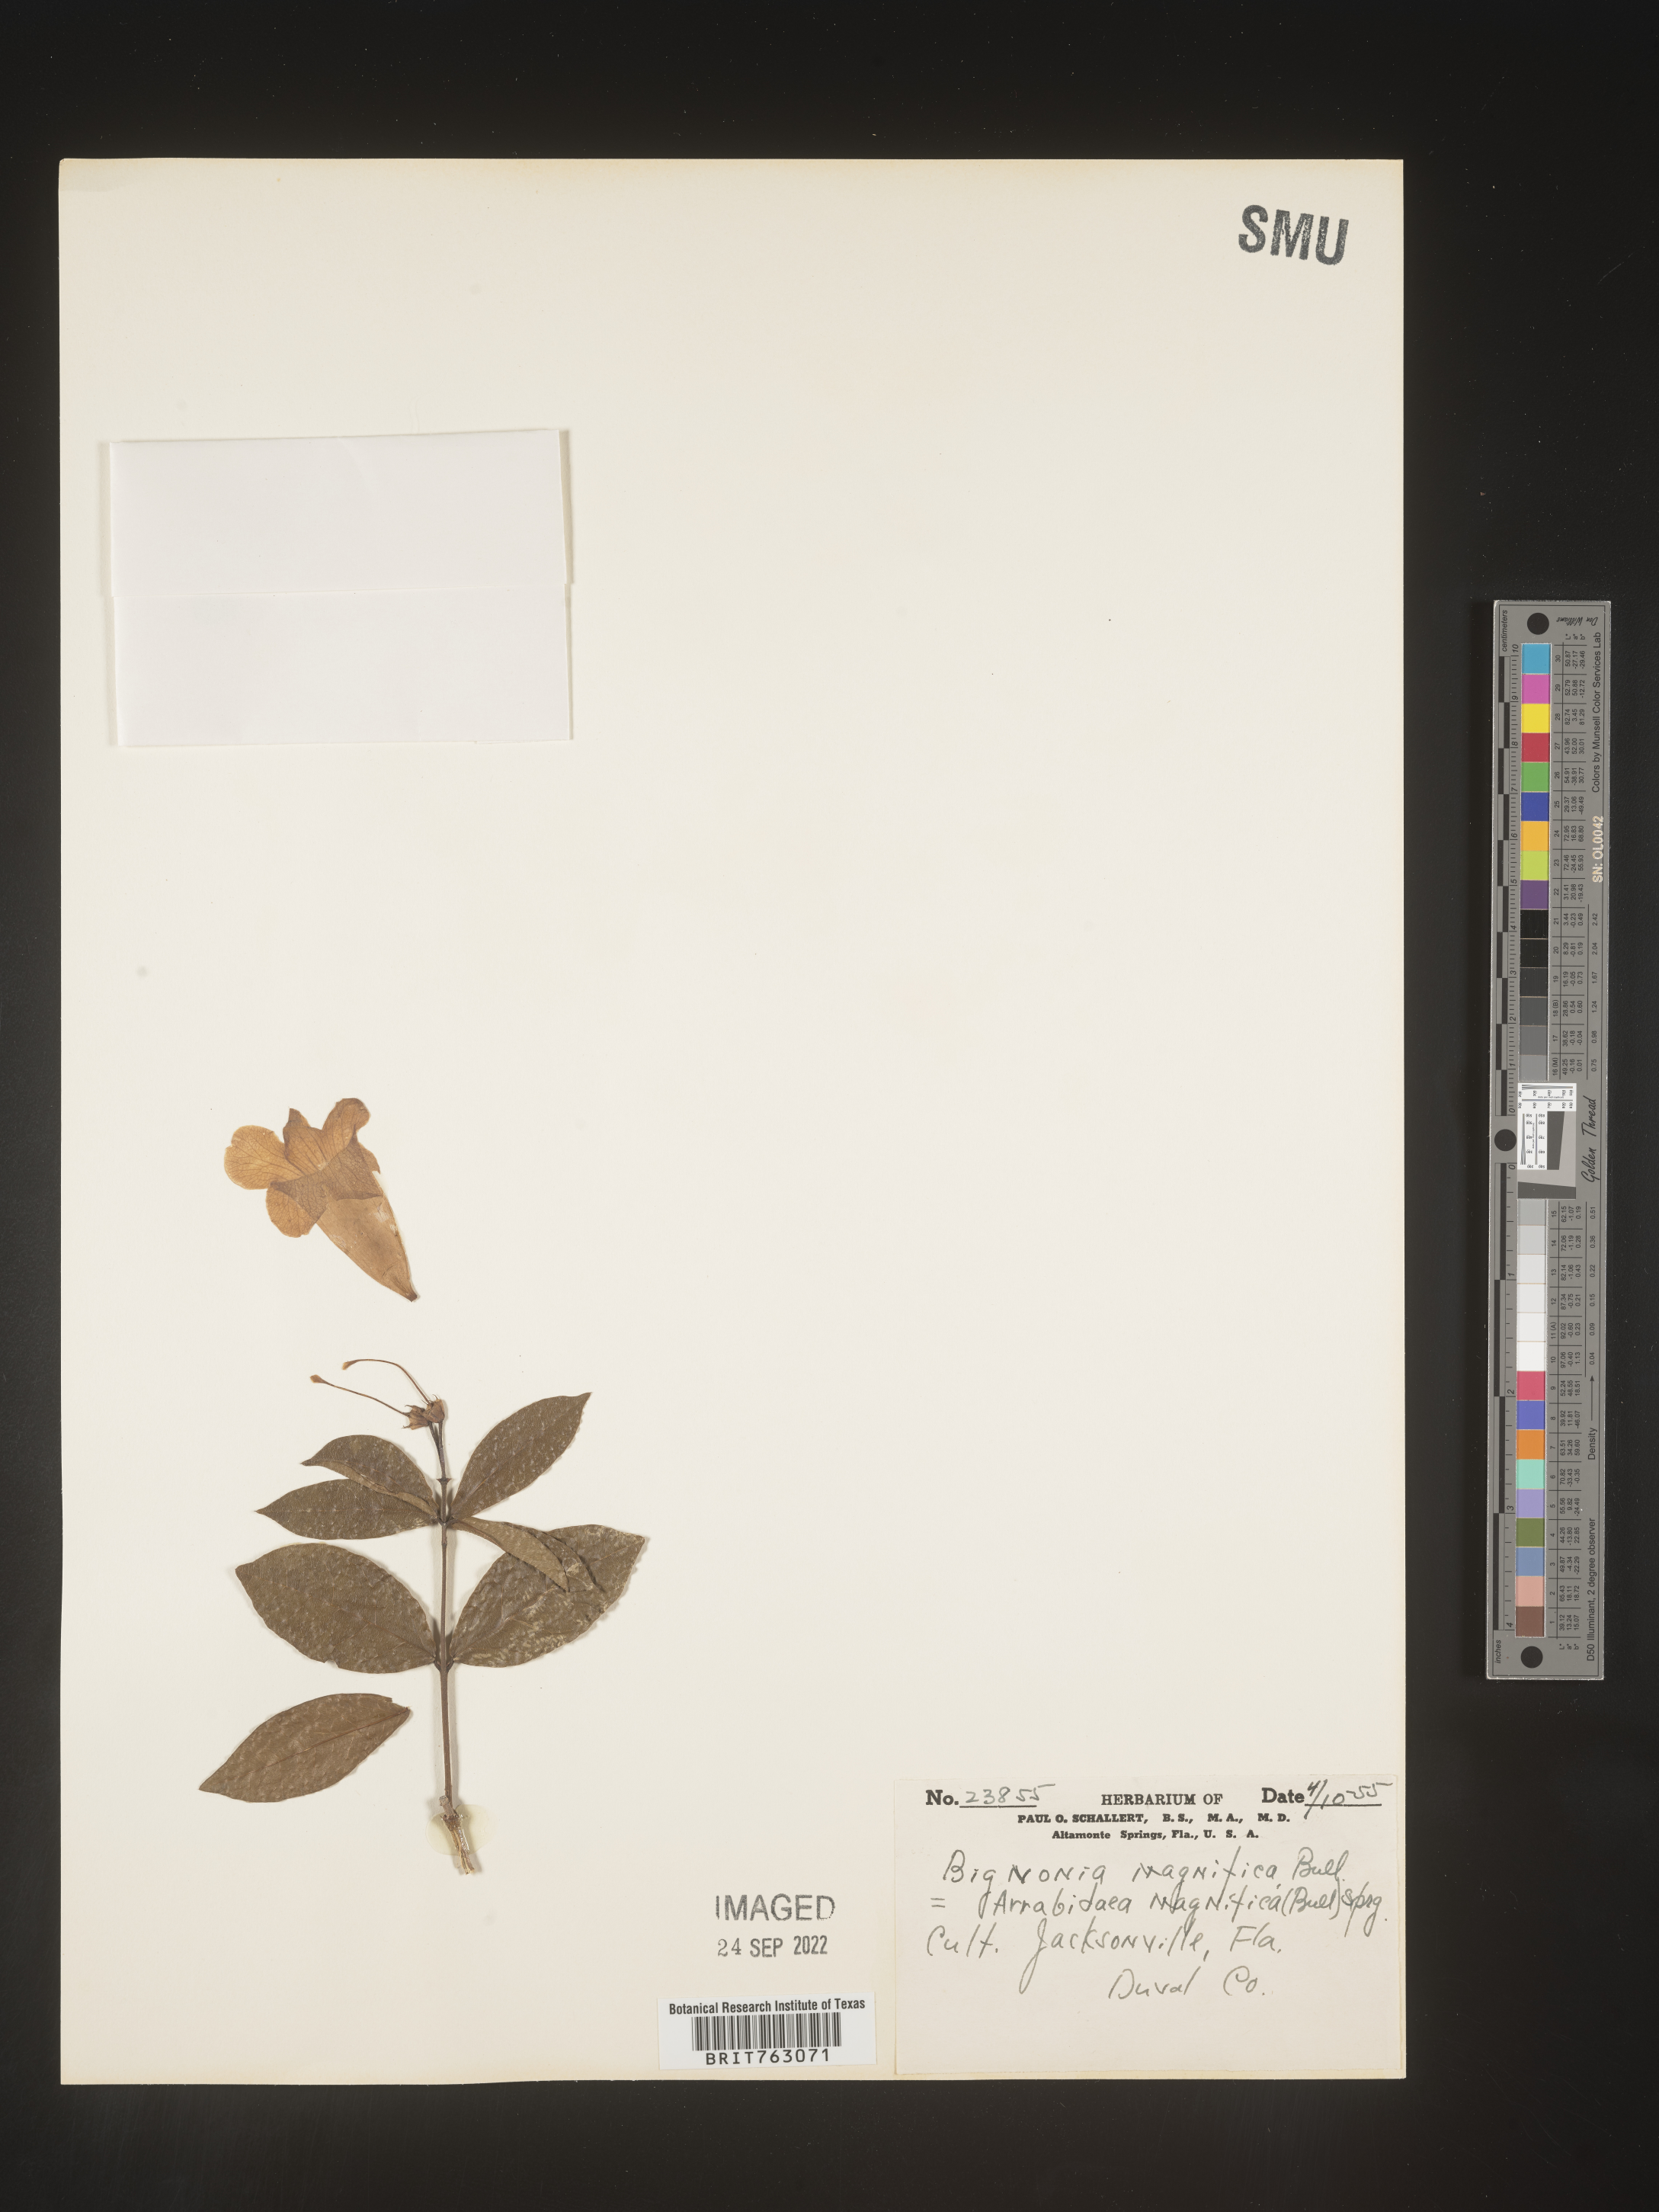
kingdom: Plantae
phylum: Tracheophyta
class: Magnoliopsida
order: Rosales
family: Rhamnaceae
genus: Arrabidaea
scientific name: Arrabidaea
